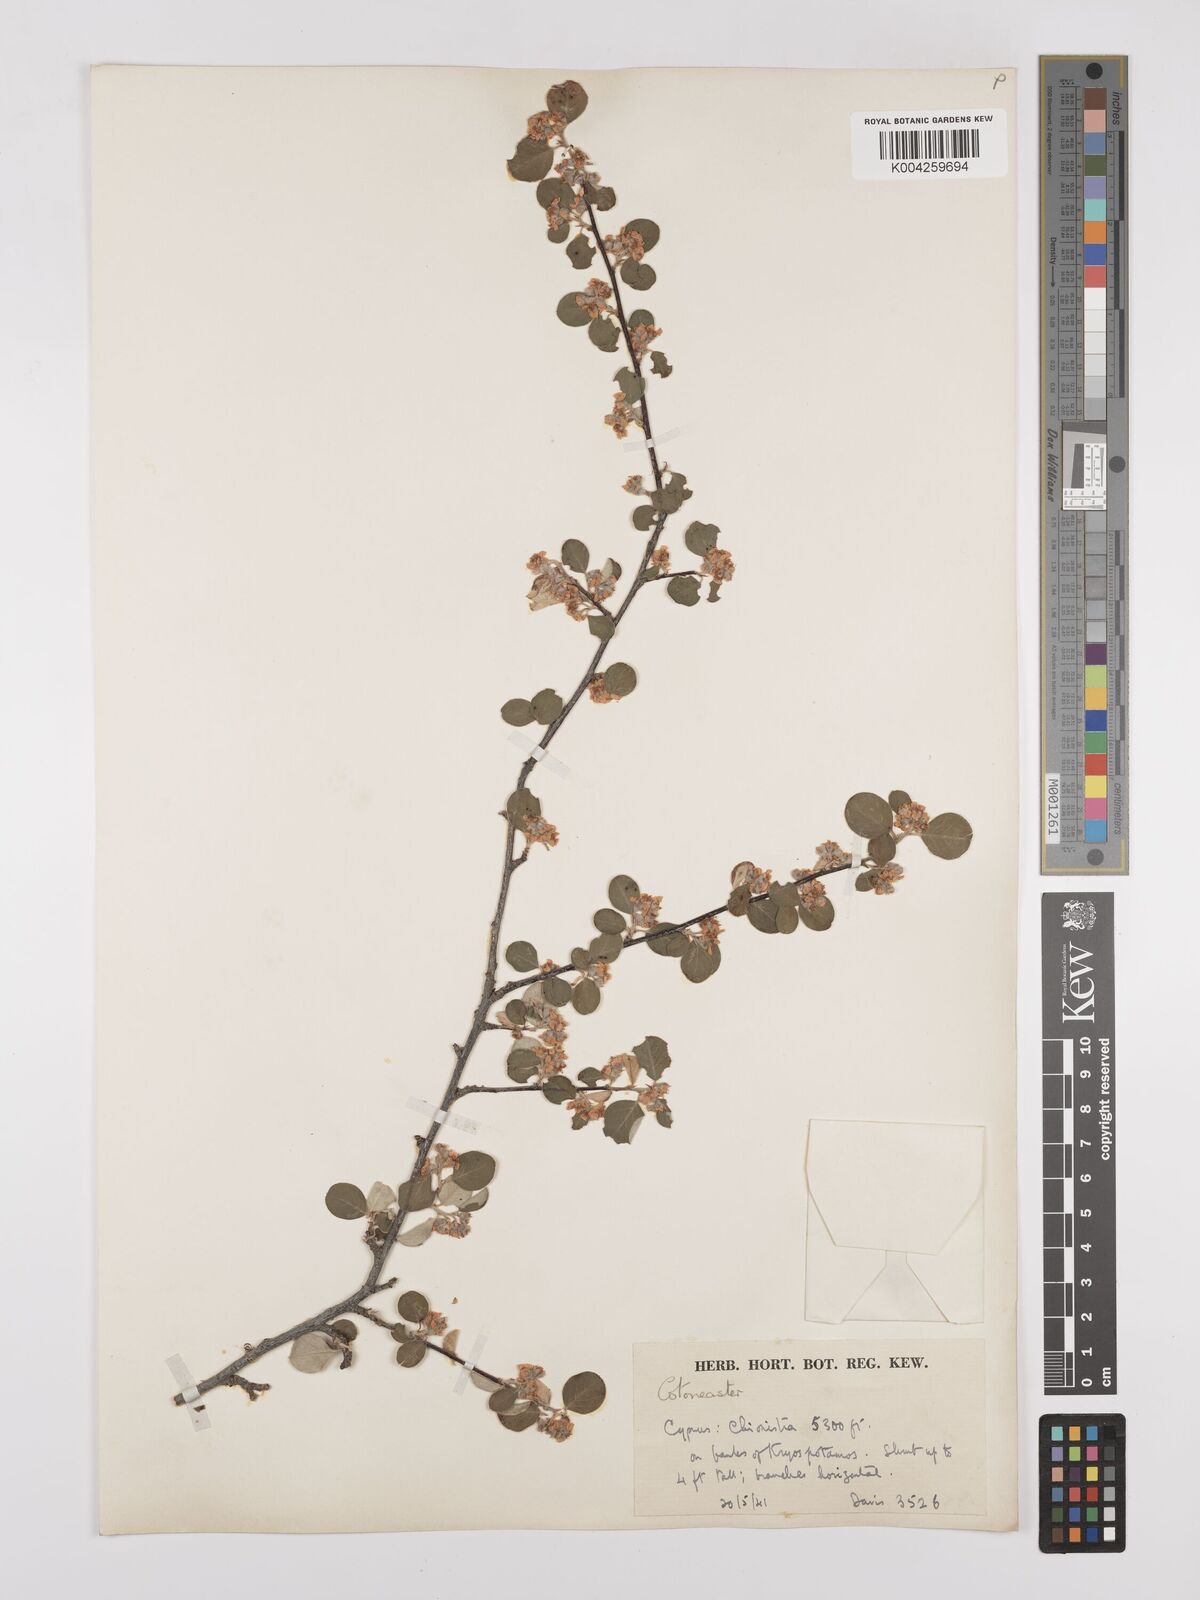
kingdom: Plantae
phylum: Tracheophyta
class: Magnoliopsida
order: Rosales
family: Rosaceae
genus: Cotoneaster
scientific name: Cotoneaster racemiflorus
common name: Cluster-flower cotoneaster
